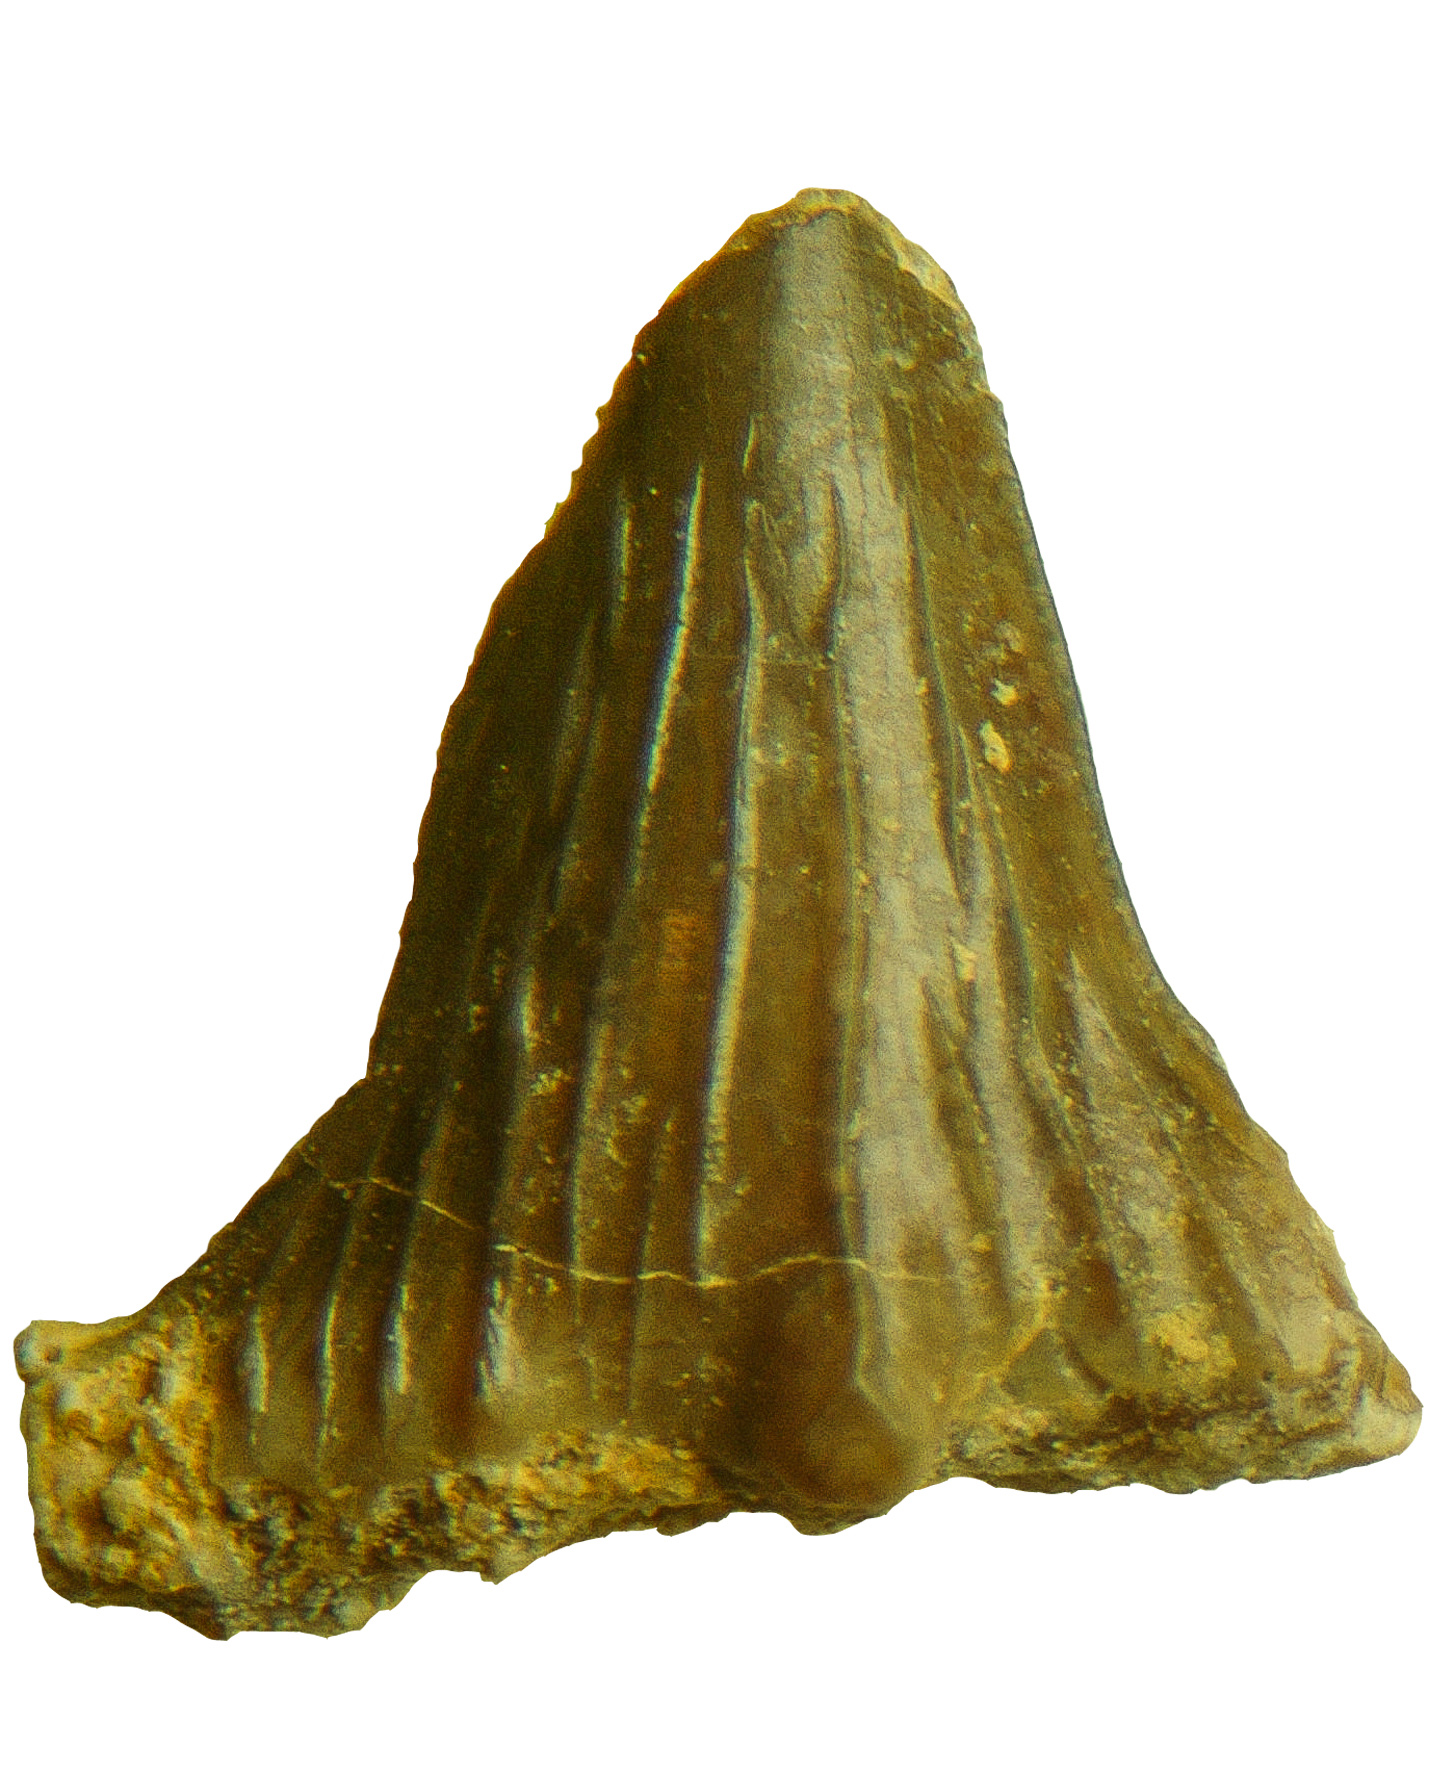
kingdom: Animalia
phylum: Chordata
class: Elasmobranchii
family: Hybodontidae
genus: Hybodus
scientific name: Hybodus
